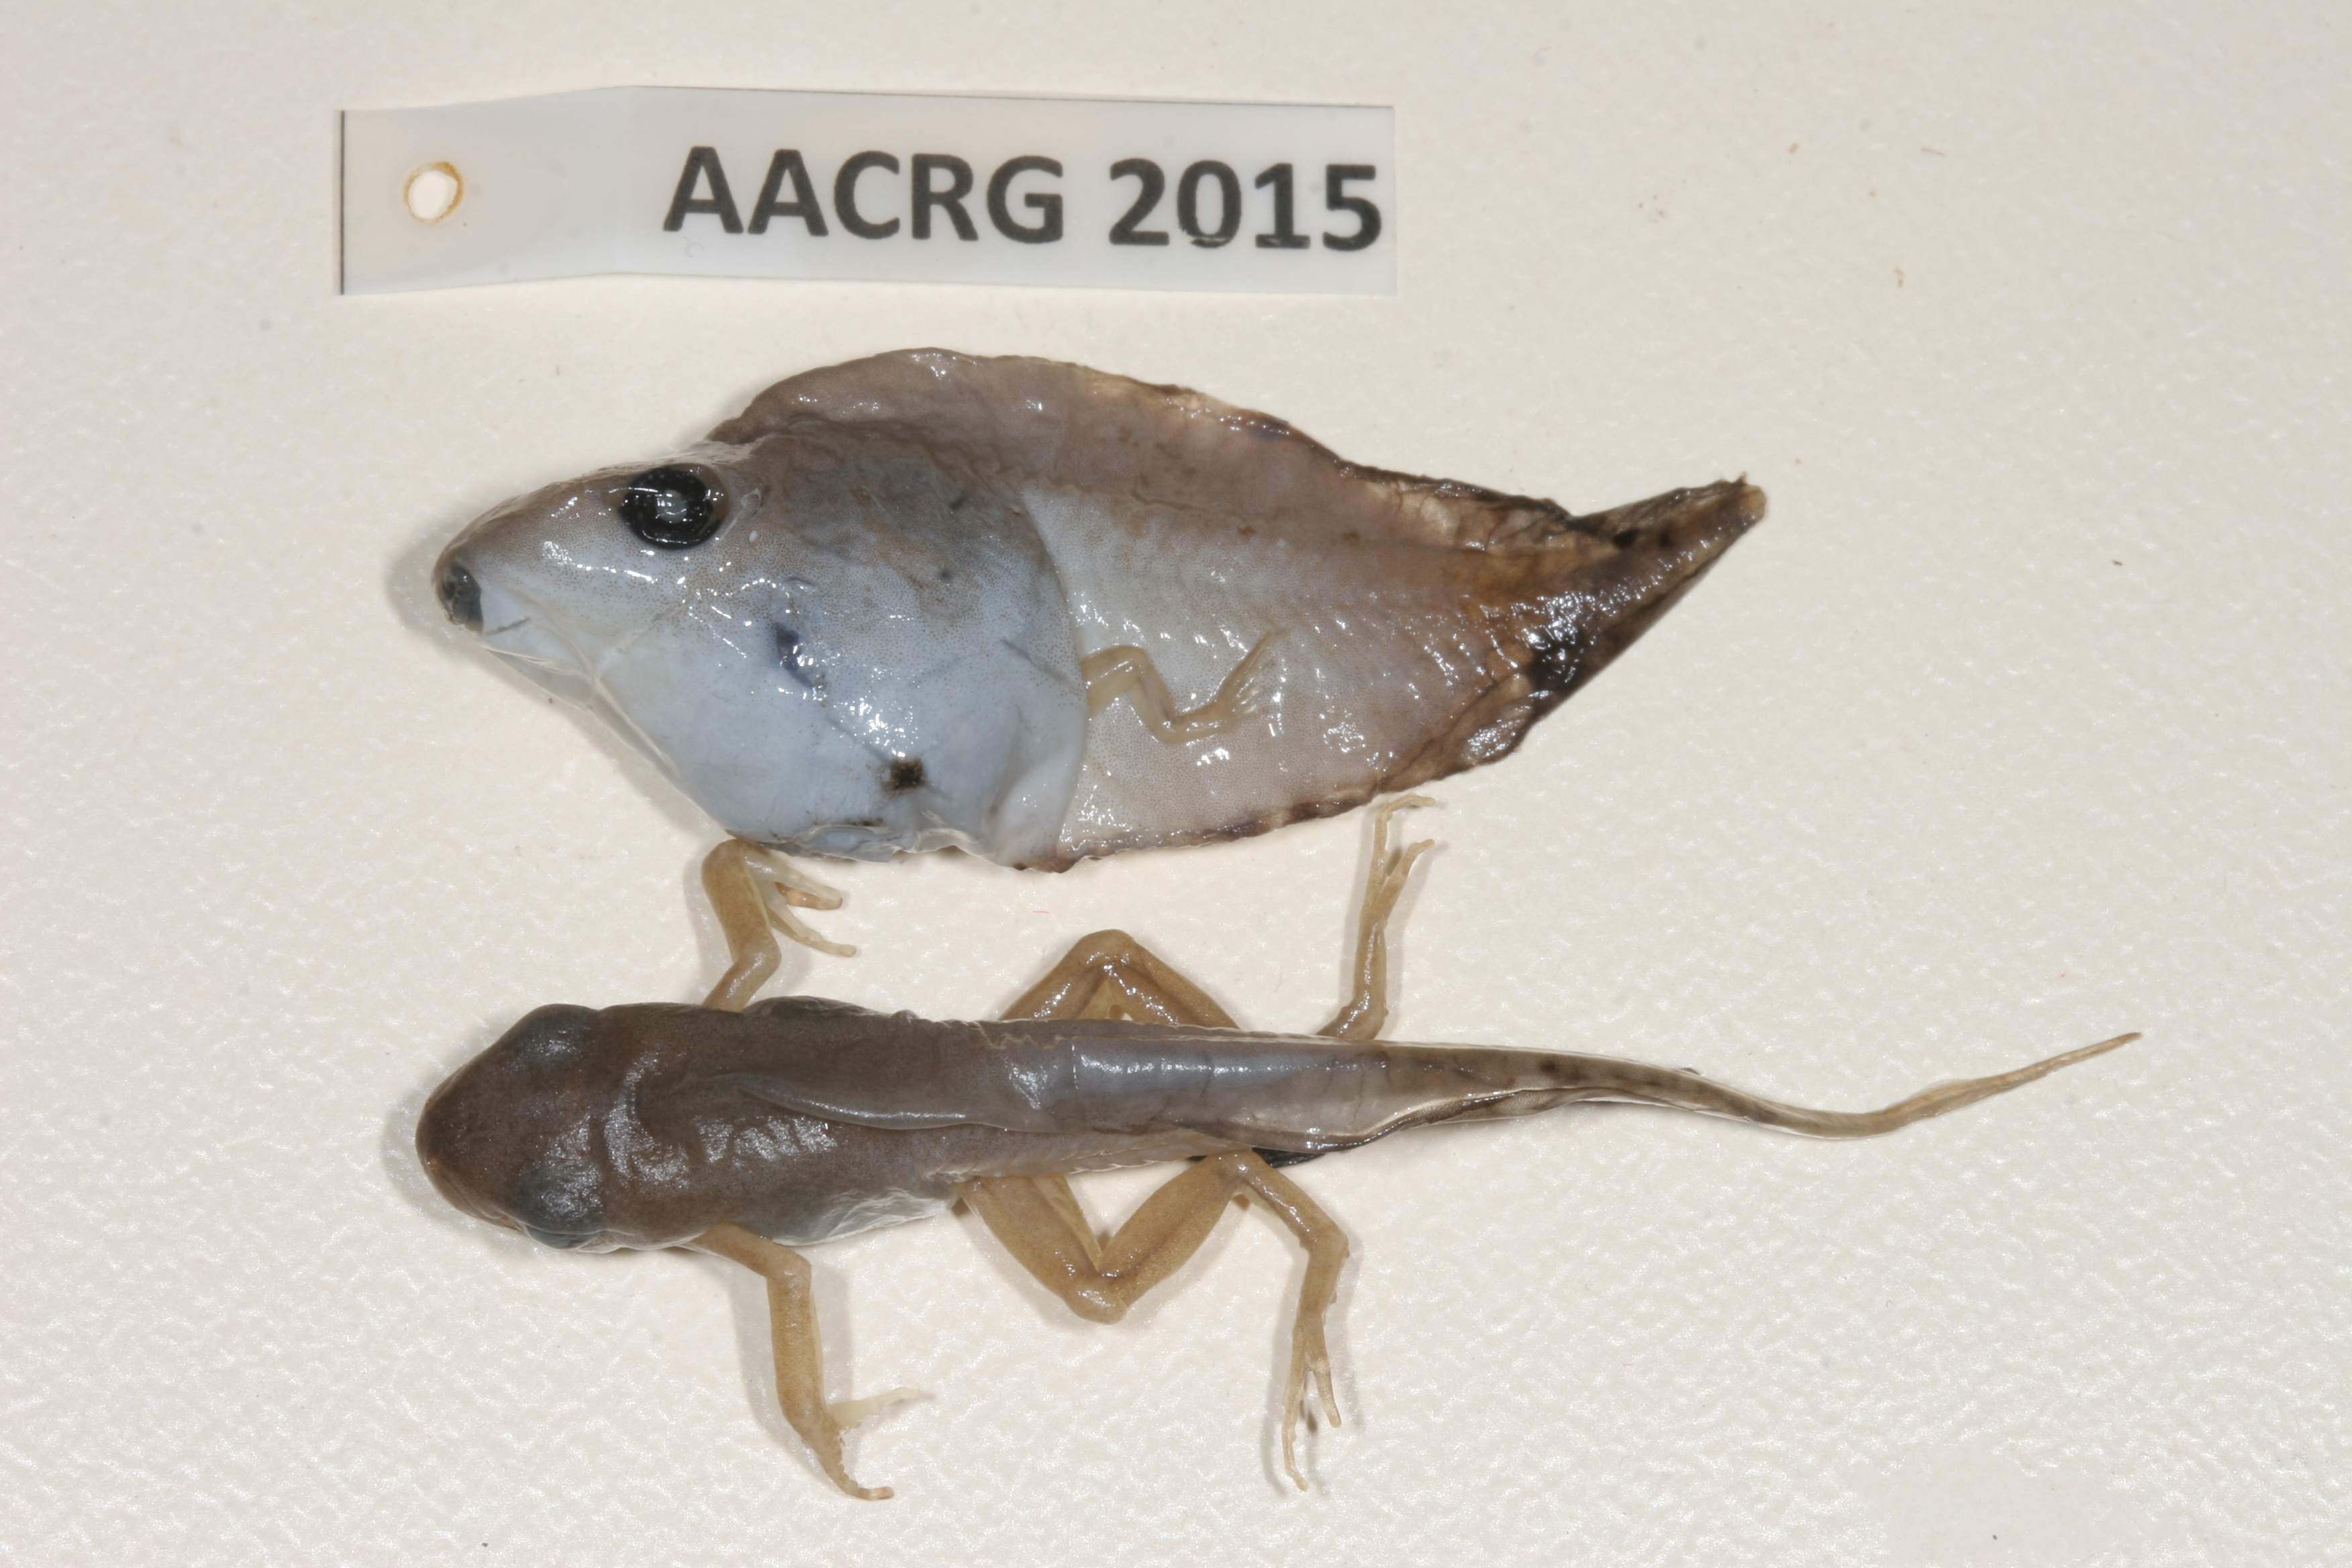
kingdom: Animalia
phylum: Chordata
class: Amphibia
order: Anura
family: Hyperoliidae
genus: Kassina
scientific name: Kassina senegalensis
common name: Senegal land frog
